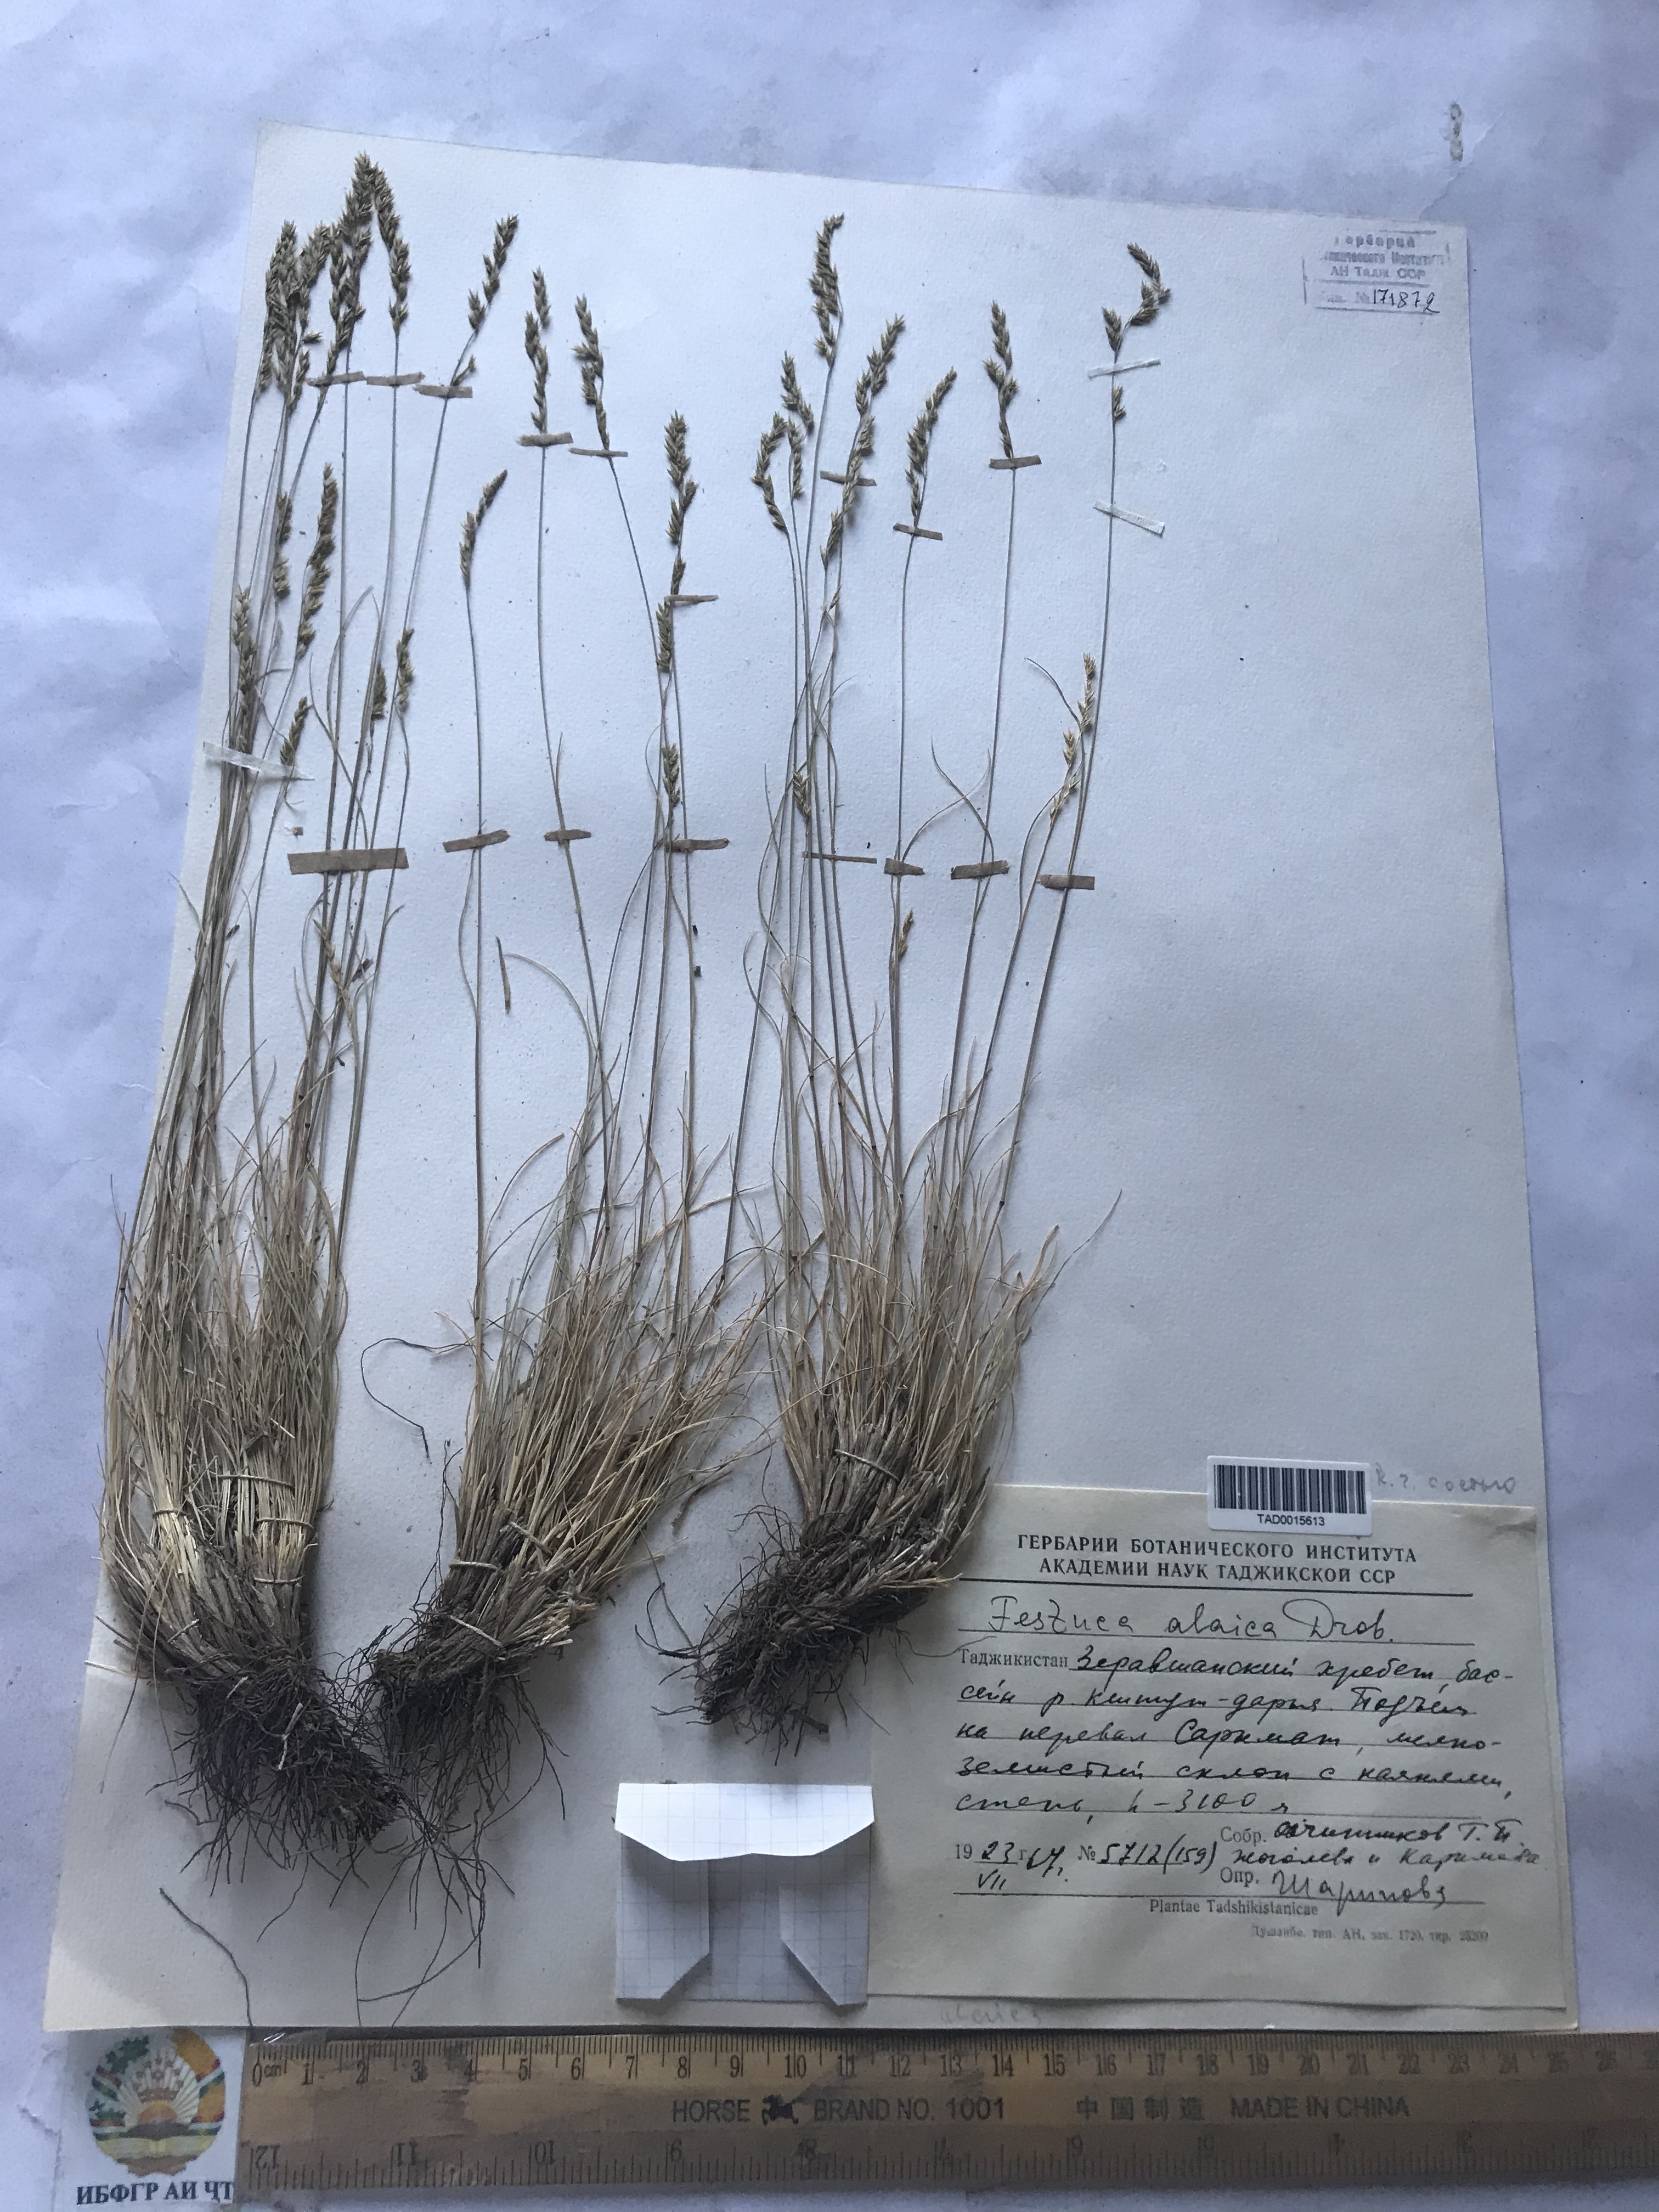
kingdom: Plantae
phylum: Tracheophyta
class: Liliopsida
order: Poales
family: Poaceae
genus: Festuca
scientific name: Festuca alaica
